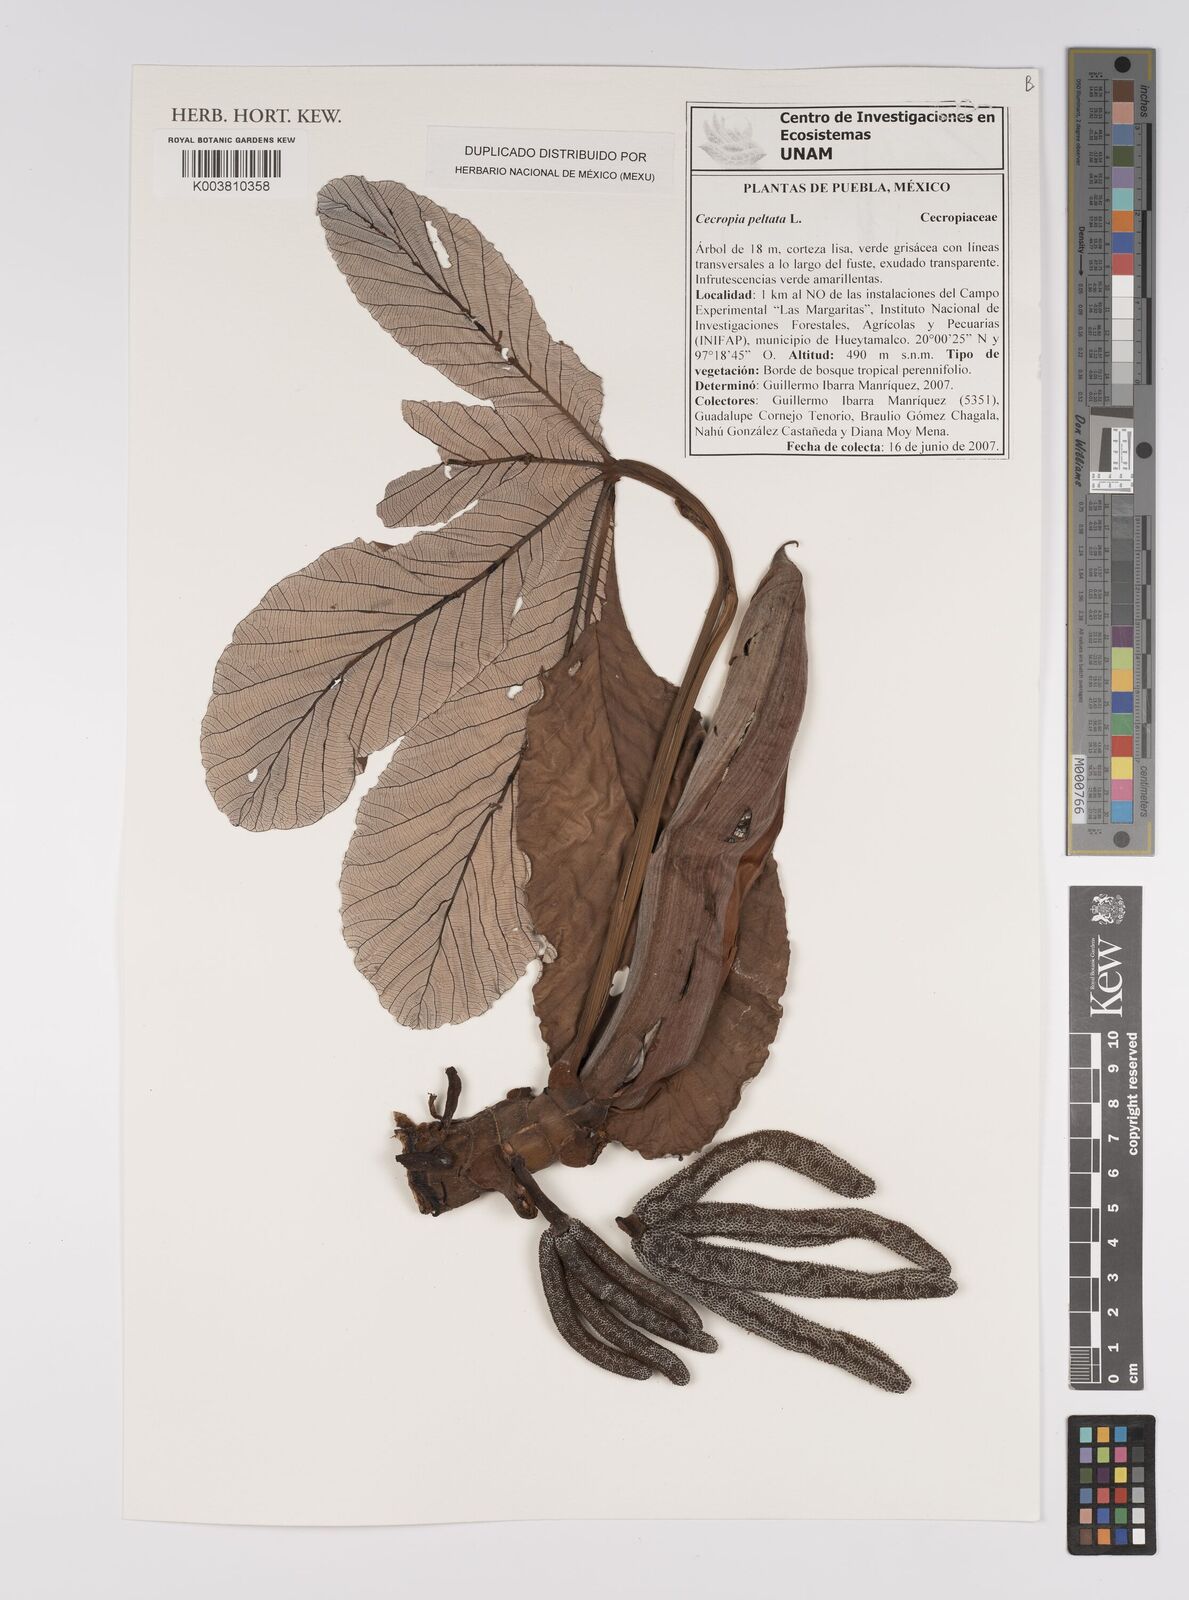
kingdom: Plantae
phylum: Tracheophyta
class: Magnoliopsida
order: Rosales
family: Urticaceae
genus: Cecropia
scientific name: Cecropia peltata
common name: Trumpet-tree
